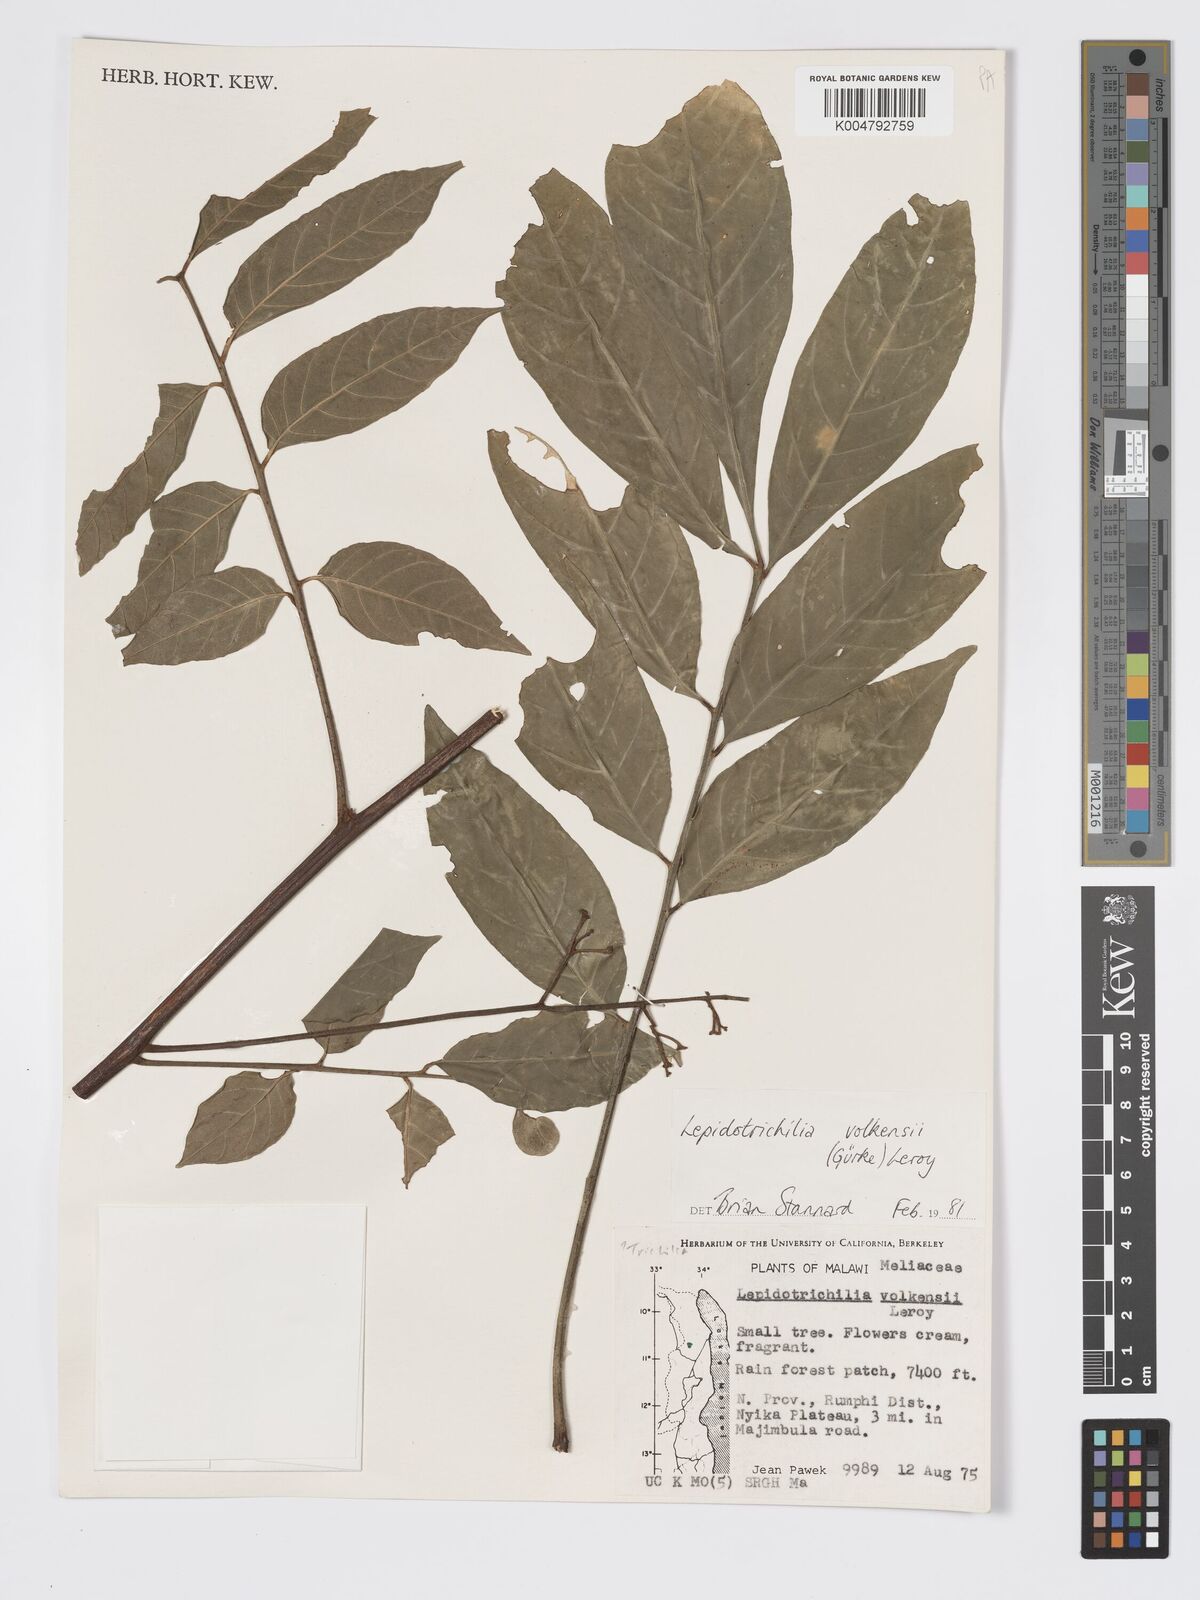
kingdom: Plantae
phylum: Tracheophyta
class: Magnoliopsida
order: Sapindales
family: Meliaceae
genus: Lepidotrichilia
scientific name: Lepidotrichilia volkensii
